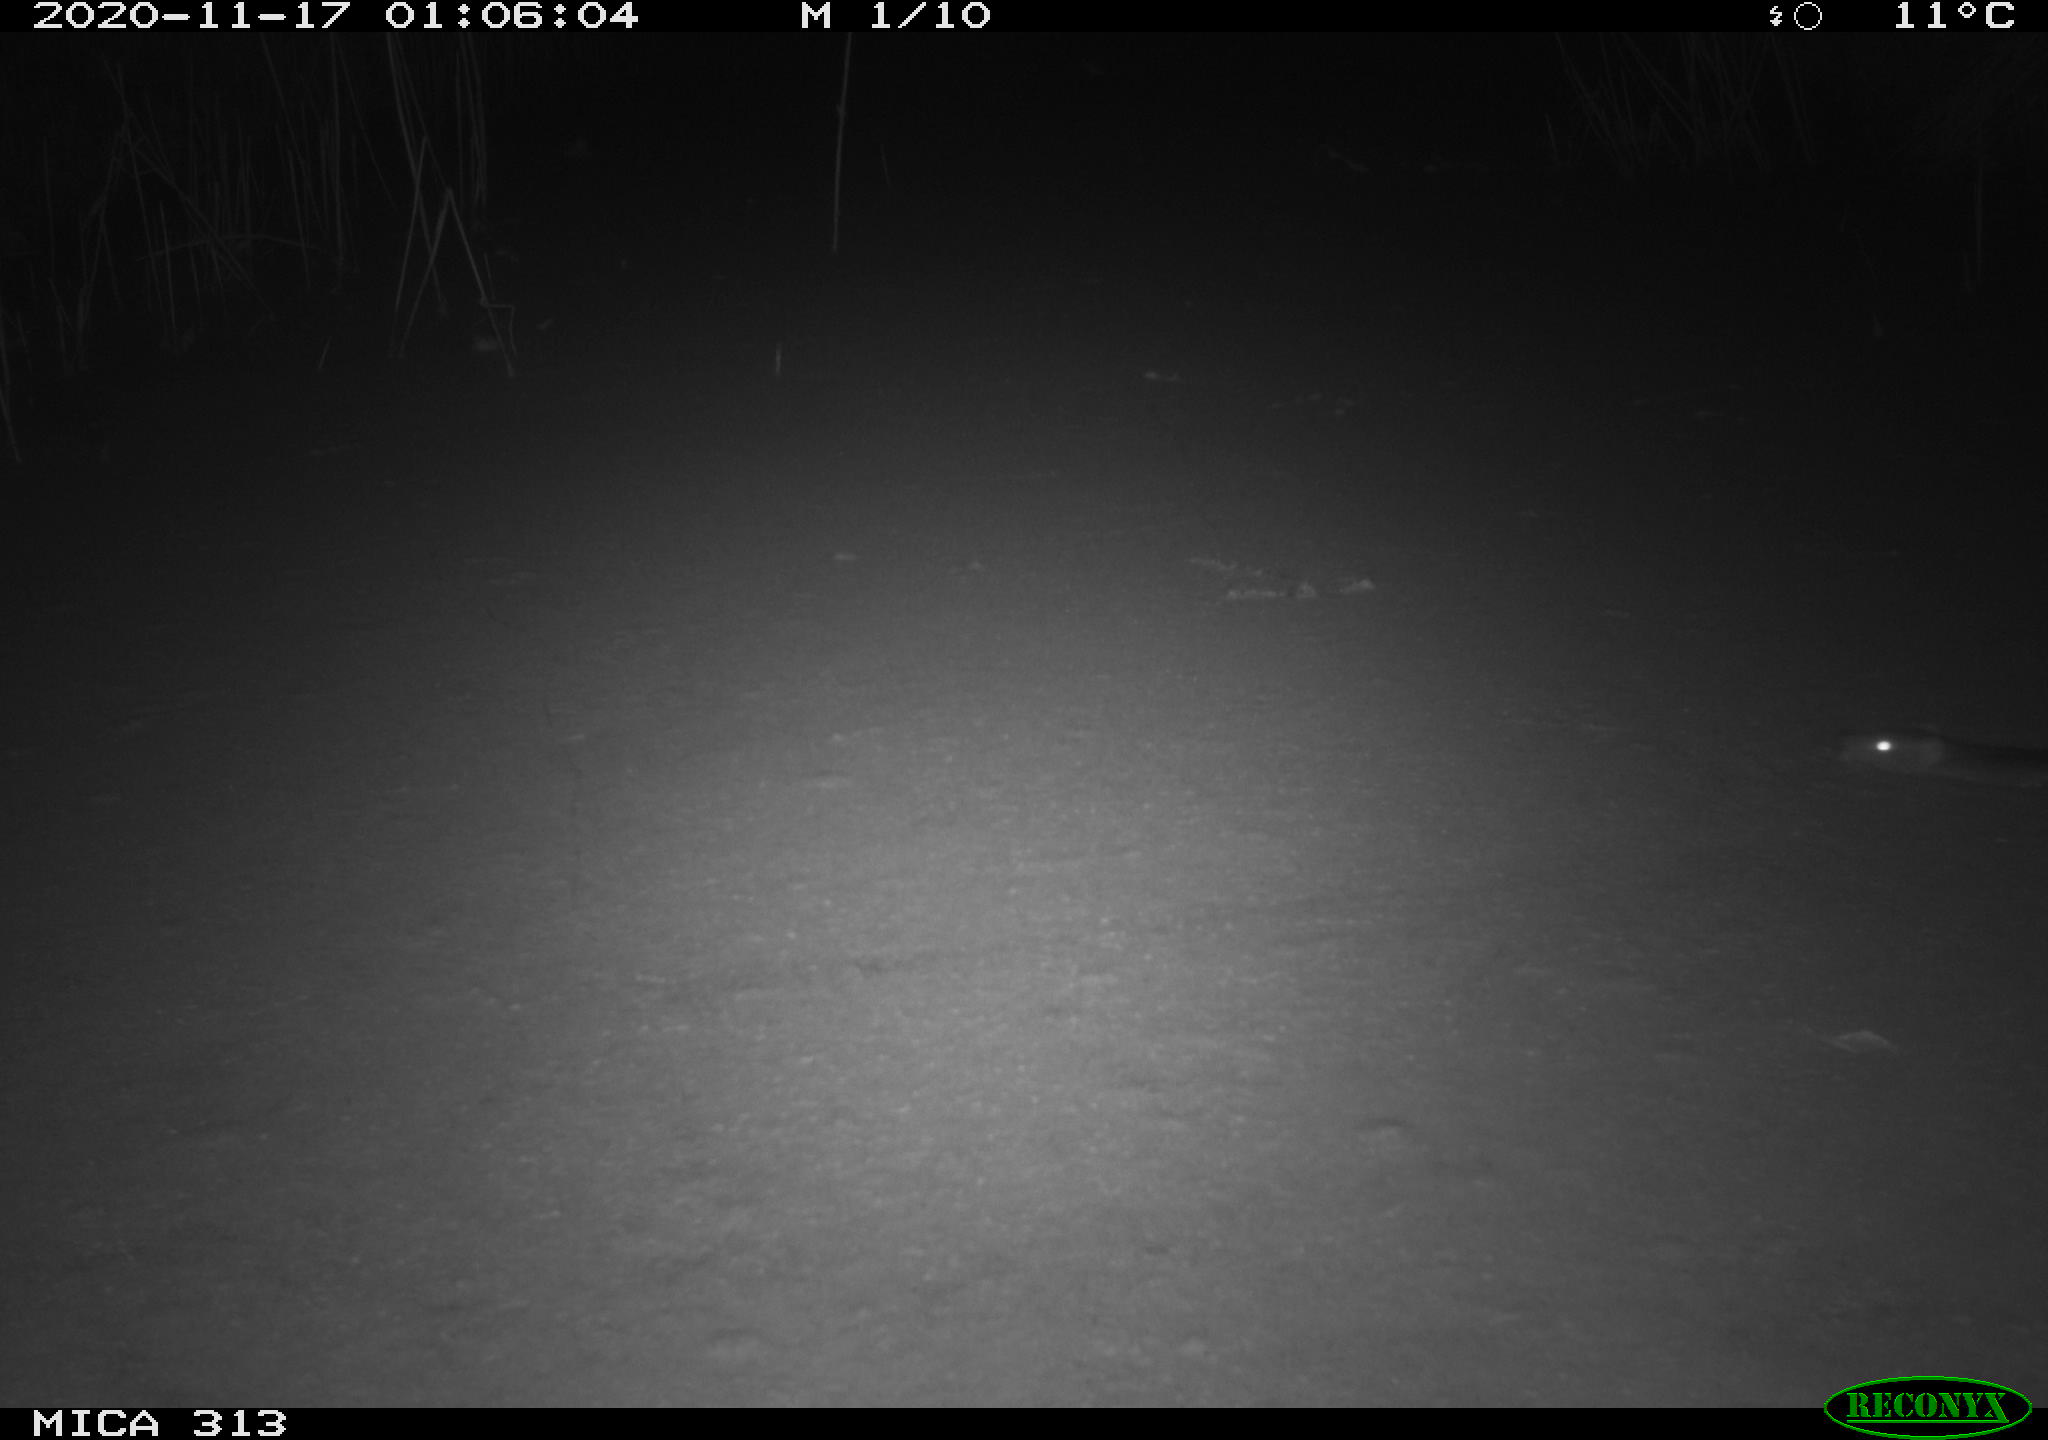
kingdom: Animalia
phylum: Chordata
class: Mammalia
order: Rodentia
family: Muridae
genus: Rattus
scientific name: Rattus norvegicus
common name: Brown rat
